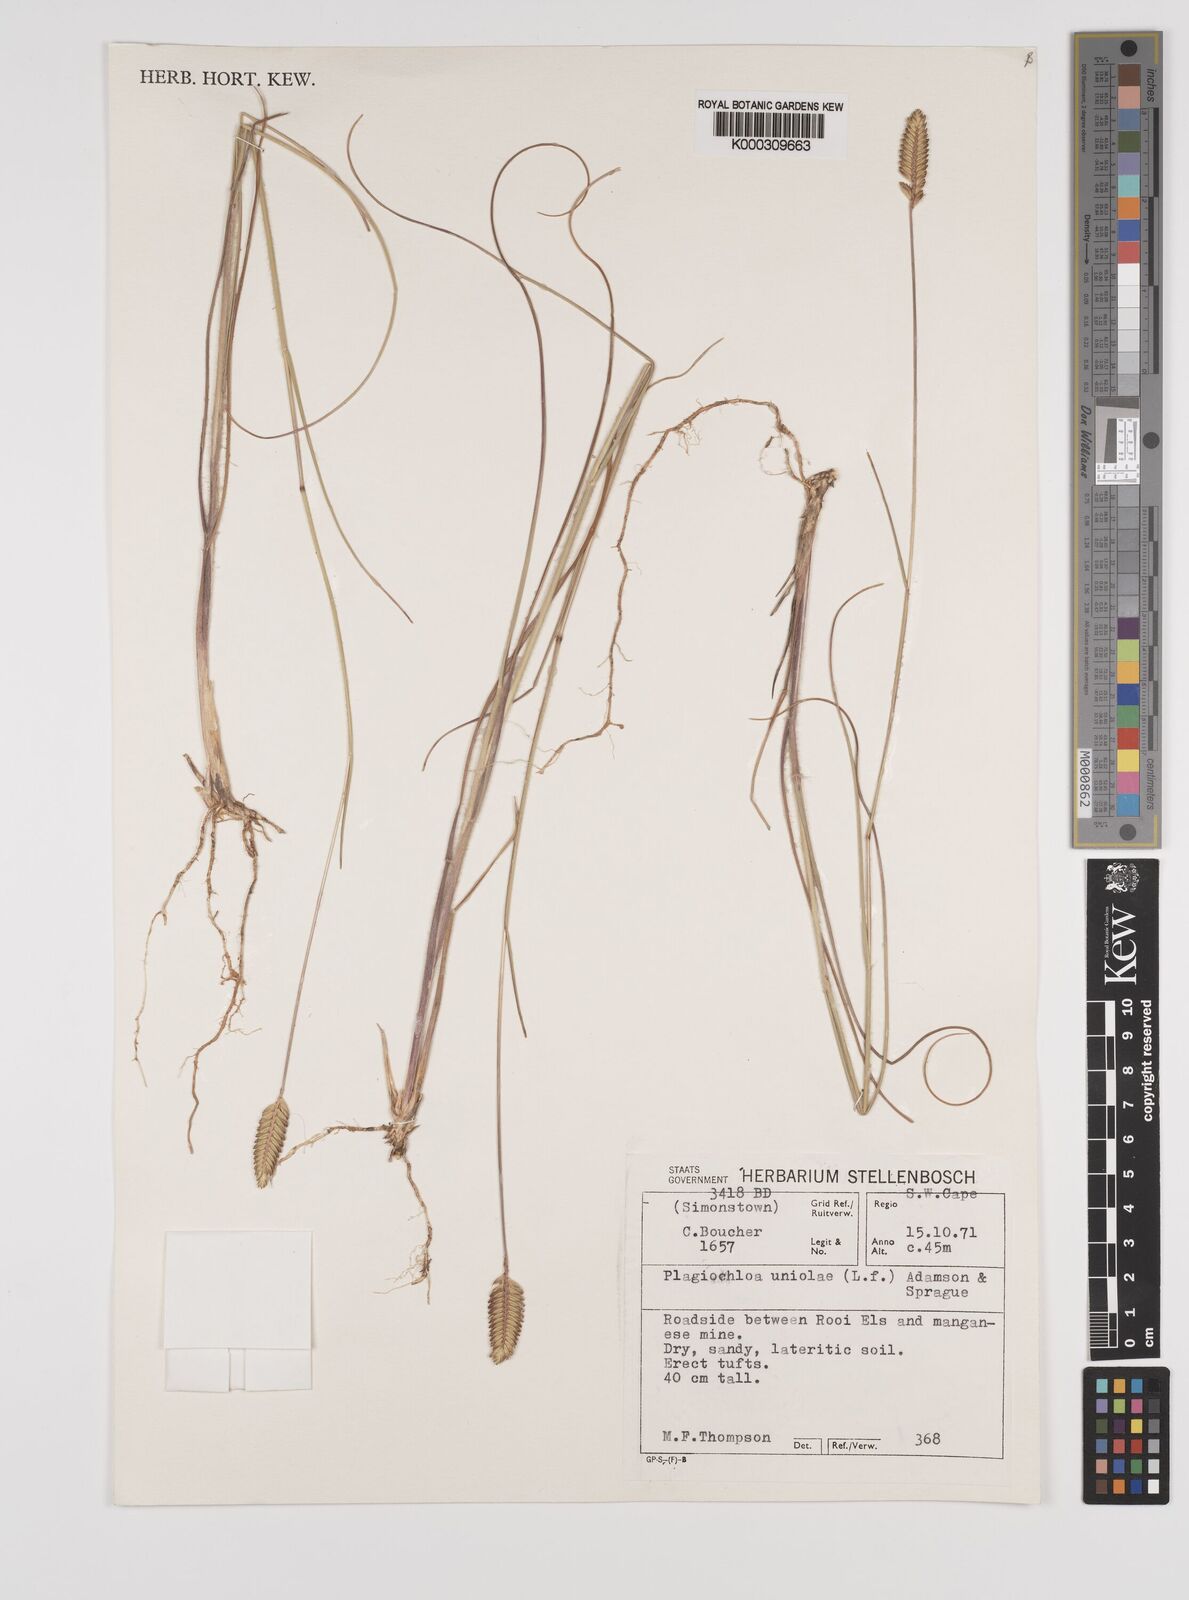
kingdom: Plantae
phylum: Tracheophyta
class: Liliopsida
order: Poales
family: Poaceae
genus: Tribolium
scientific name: Tribolium uniolae
